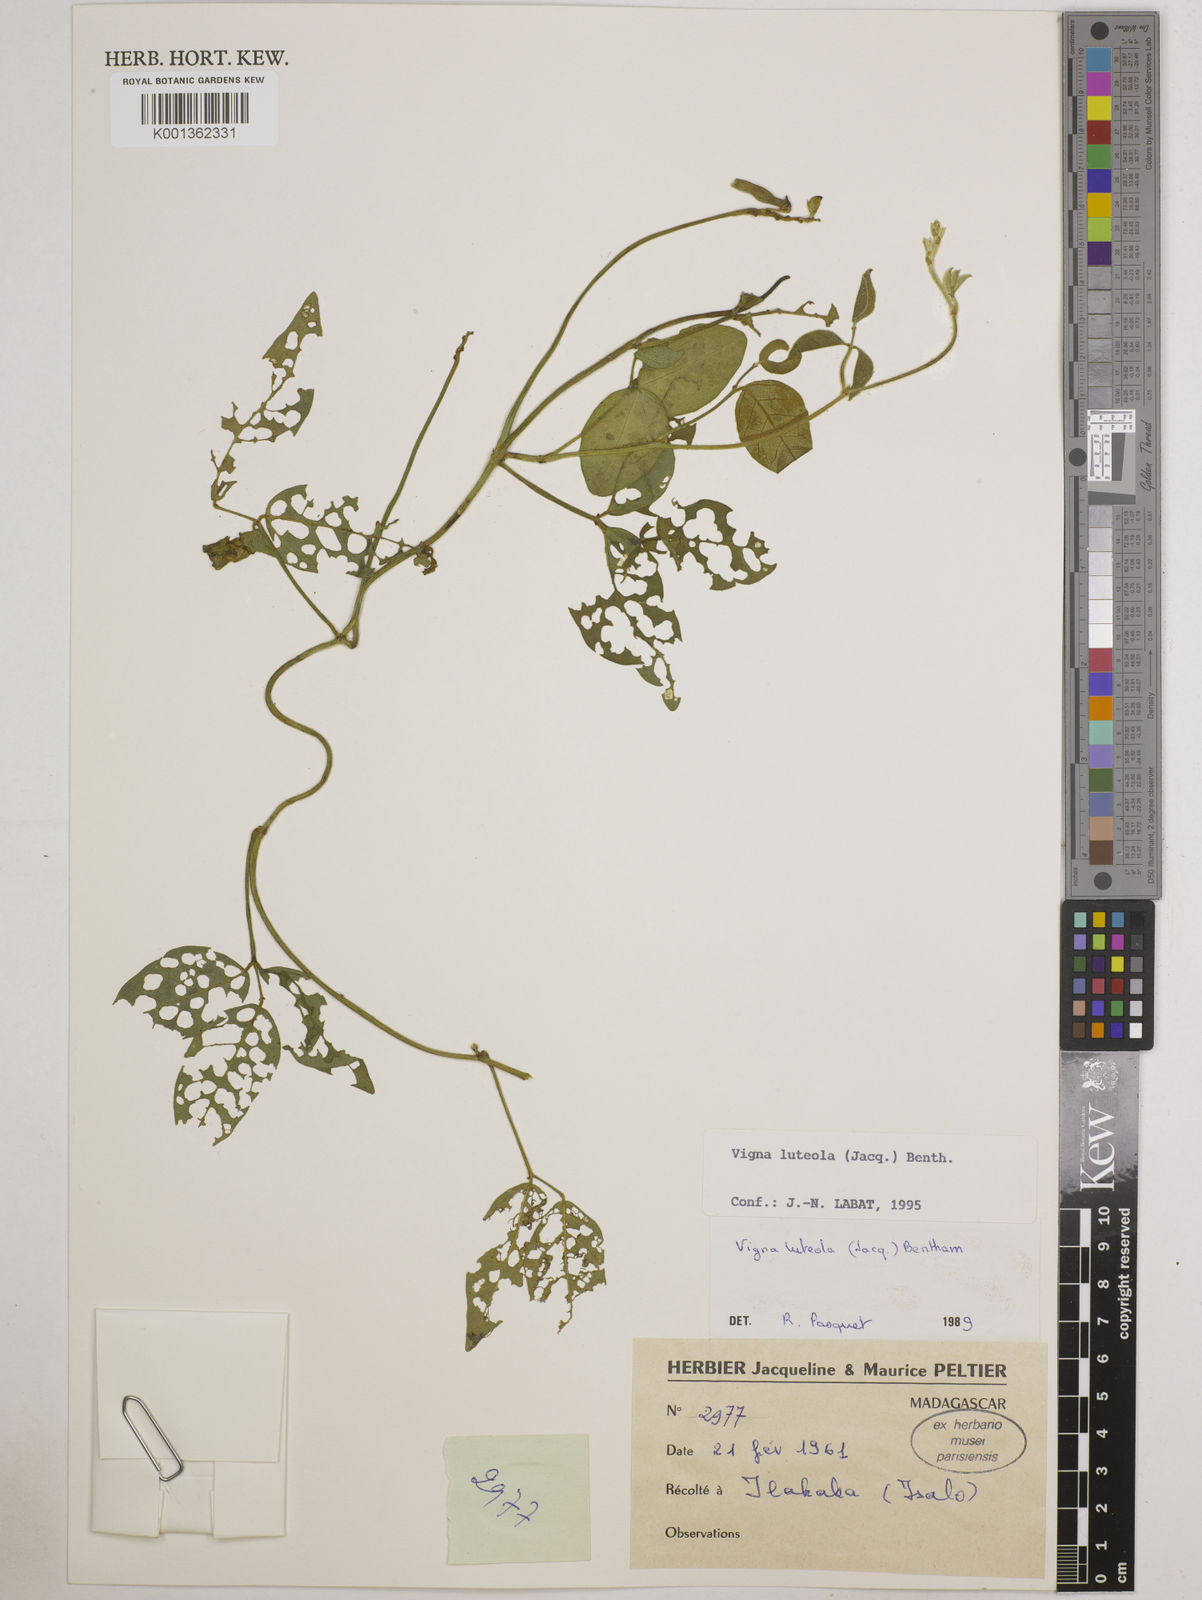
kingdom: Plantae
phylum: Tracheophyta
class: Magnoliopsida
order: Fabales
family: Fabaceae
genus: Vigna
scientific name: Vigna luteola
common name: Hairypod cowpea
